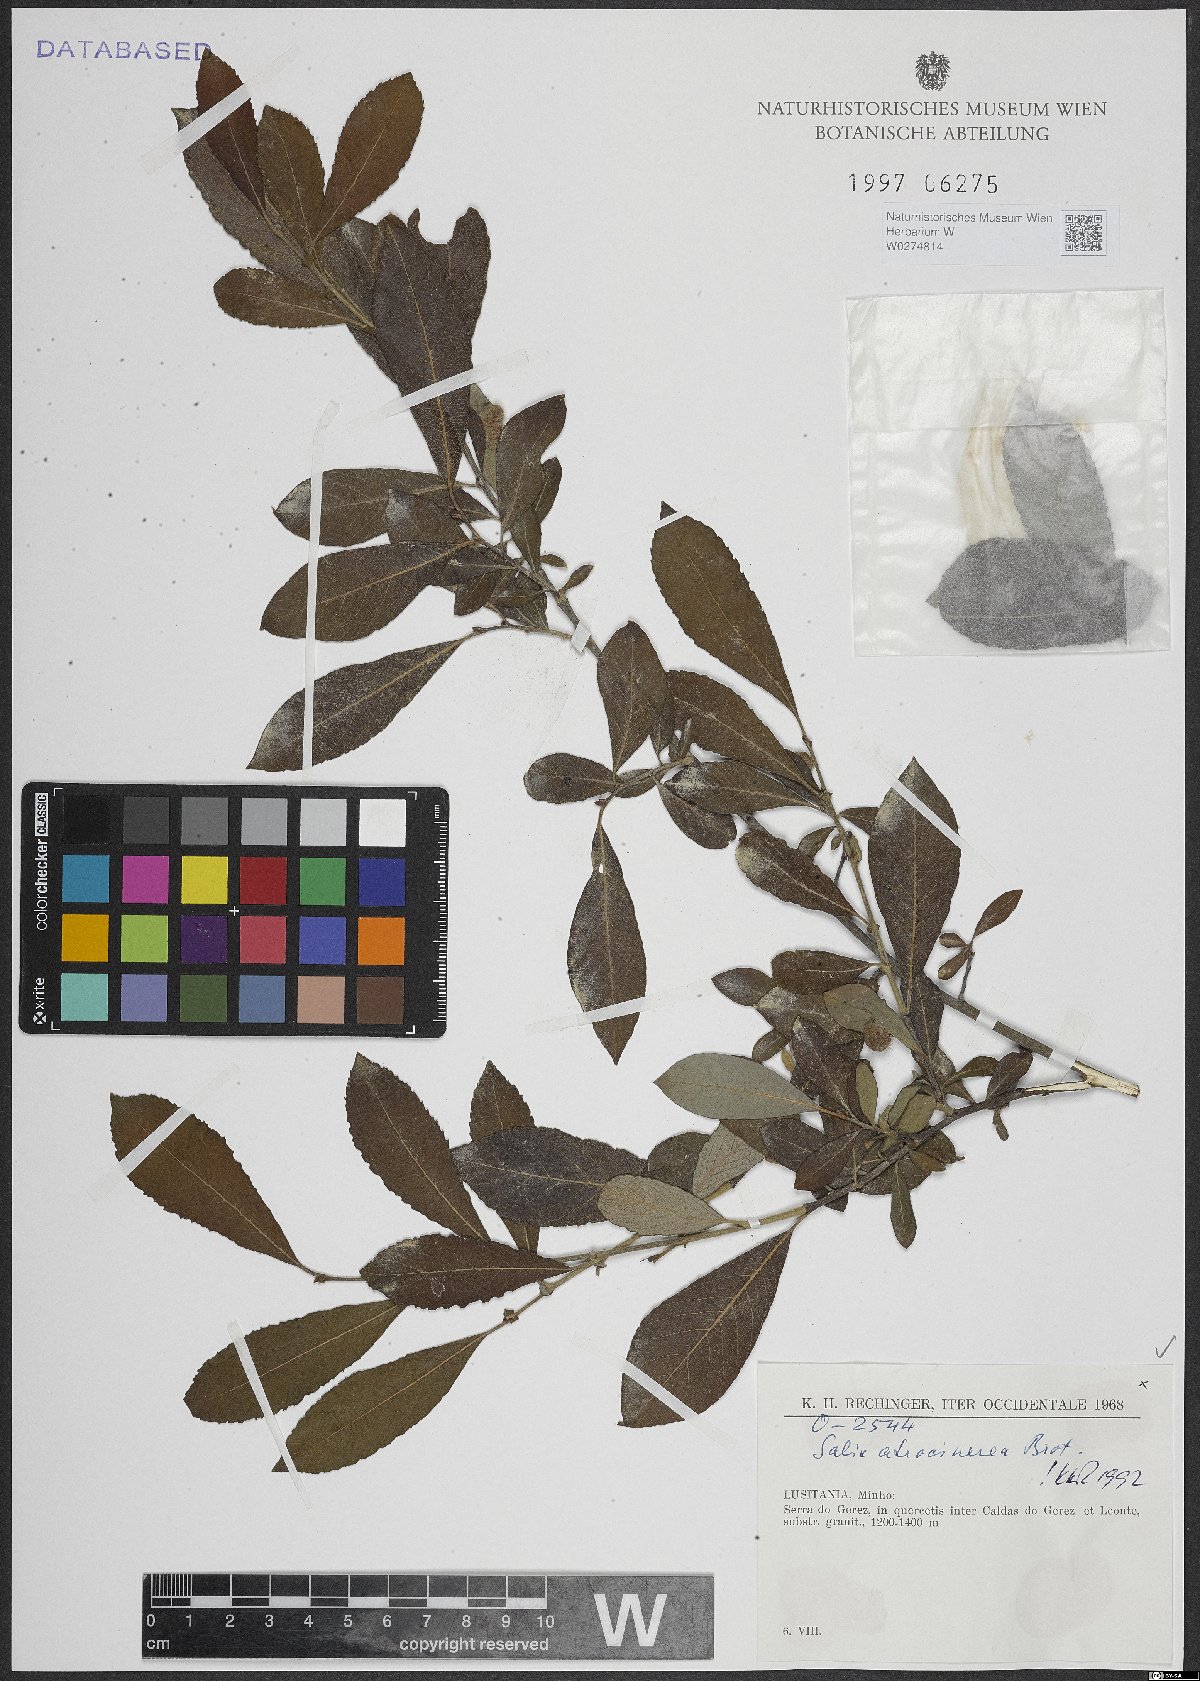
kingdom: Plantae
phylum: Tracheophyta
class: Magnoliopsida
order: Malpighiales
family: Salicaceae
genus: Salix
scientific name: Salix atrocinerea
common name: Rusty willow
